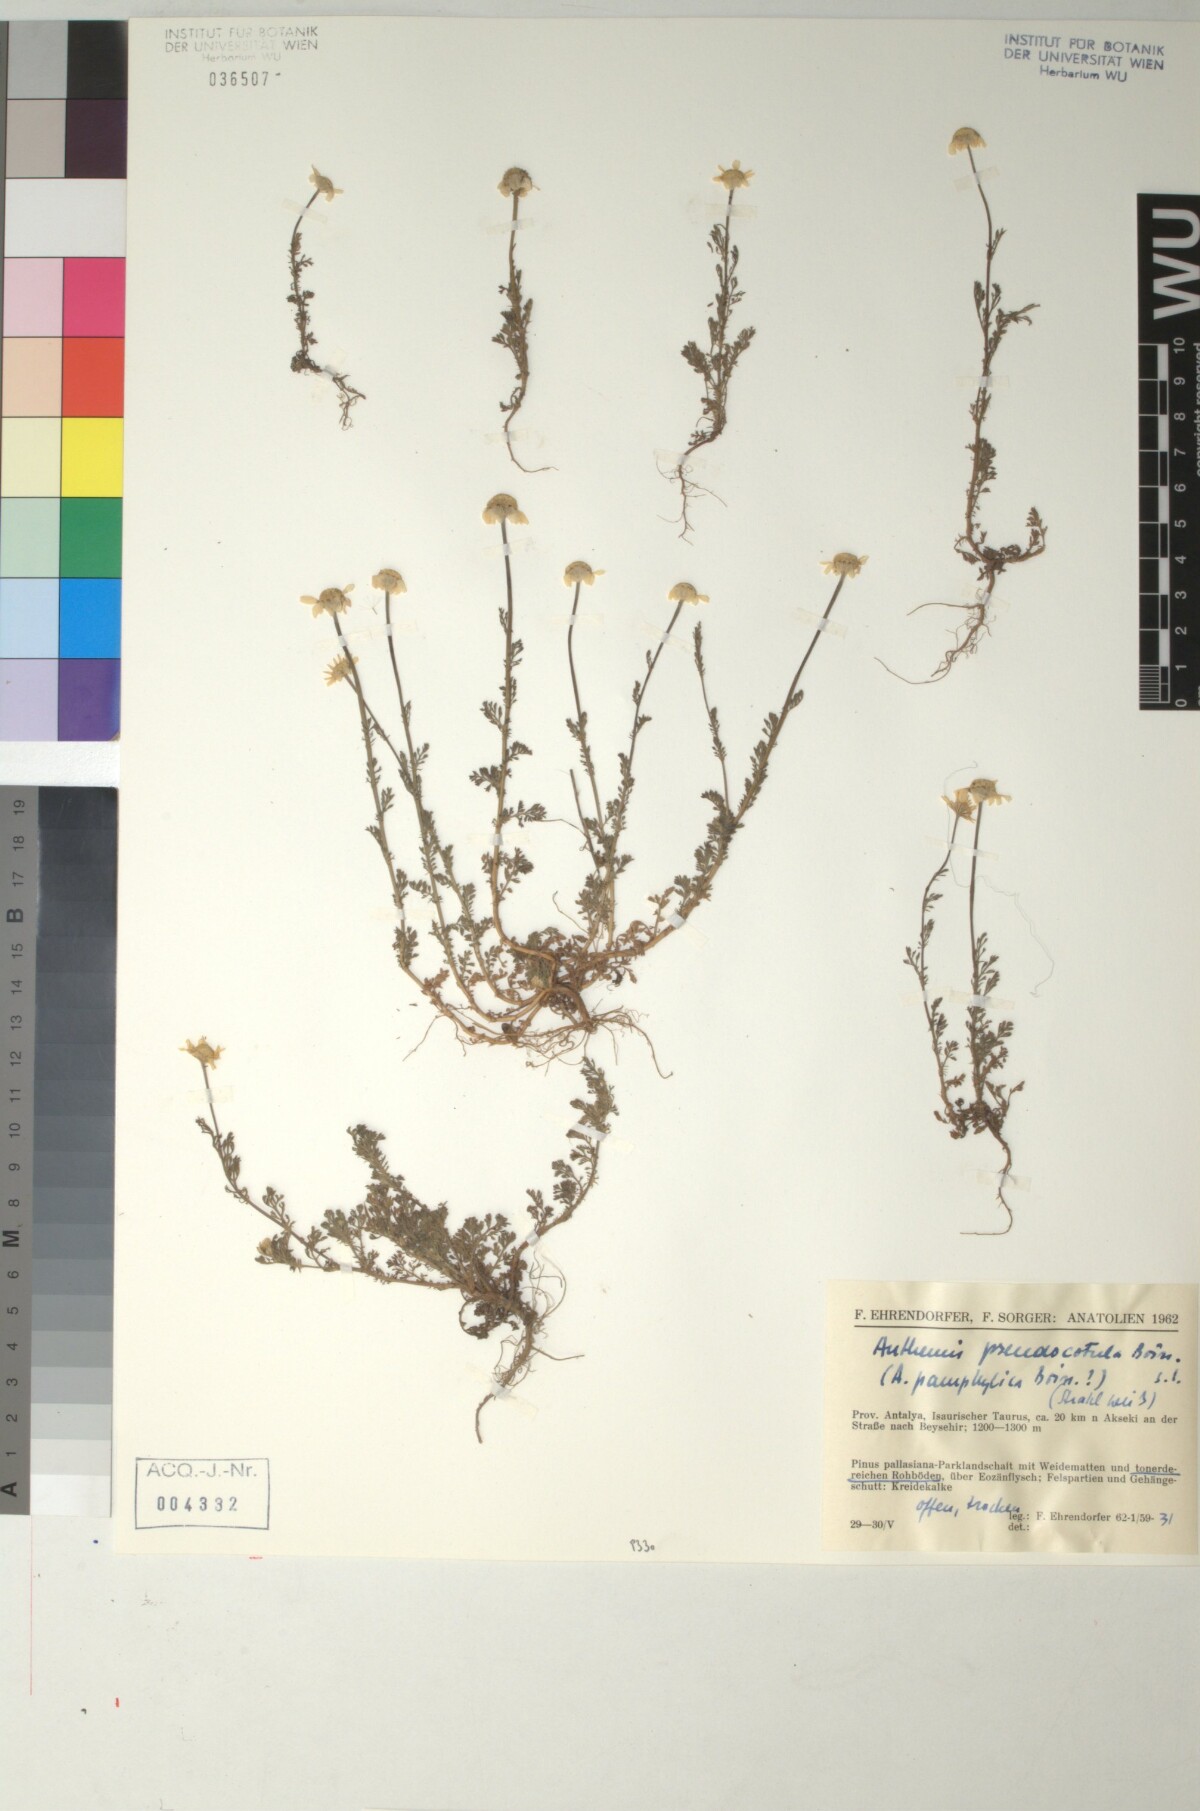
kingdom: Plantae
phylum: Tracheophyta
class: Magnoliopsida
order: Asterales
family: Asteraceae
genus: Anthemis
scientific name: Anthemis pseudocotula
